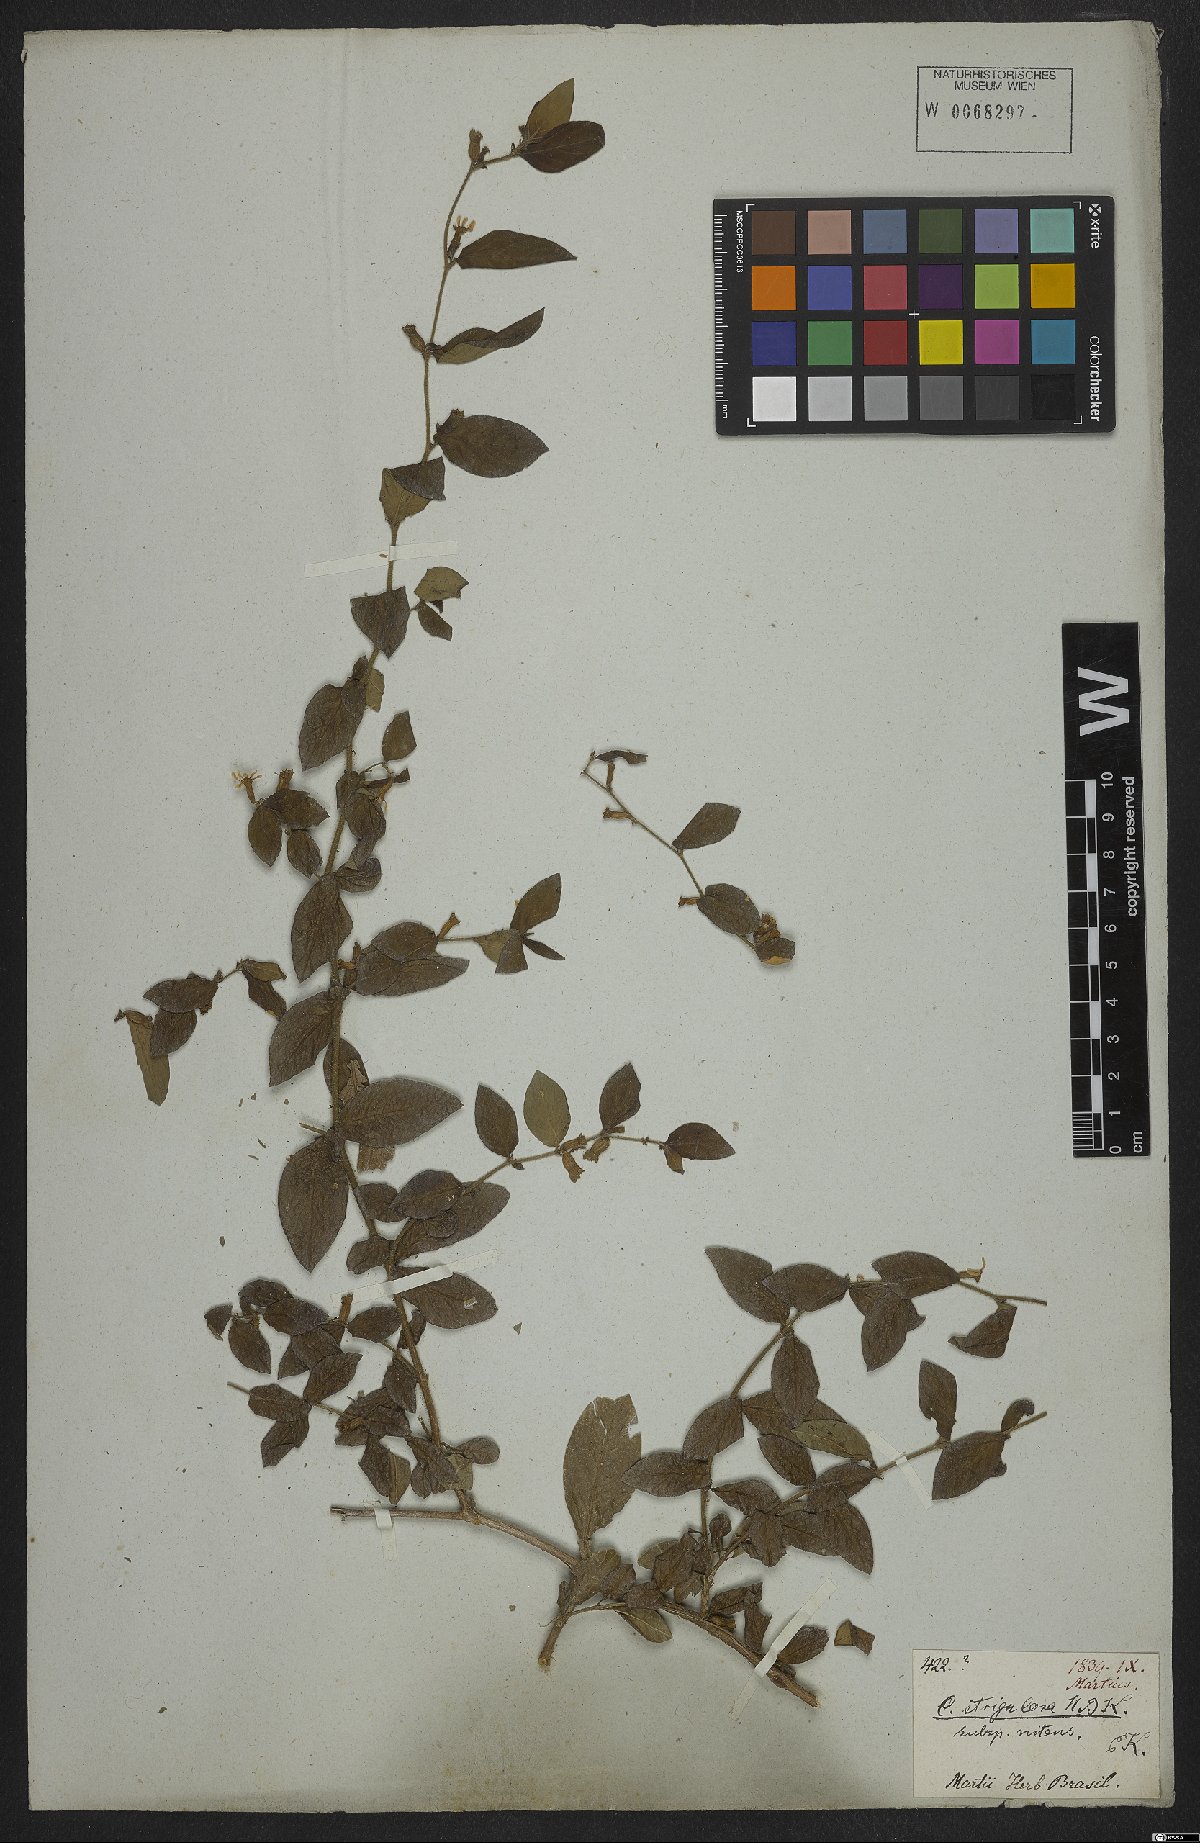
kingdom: Plantae
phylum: Tracheophyta
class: Magnoliopsida
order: Myrtales
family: Lythraceae
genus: Cuphea
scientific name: Cuphea strigulosa
